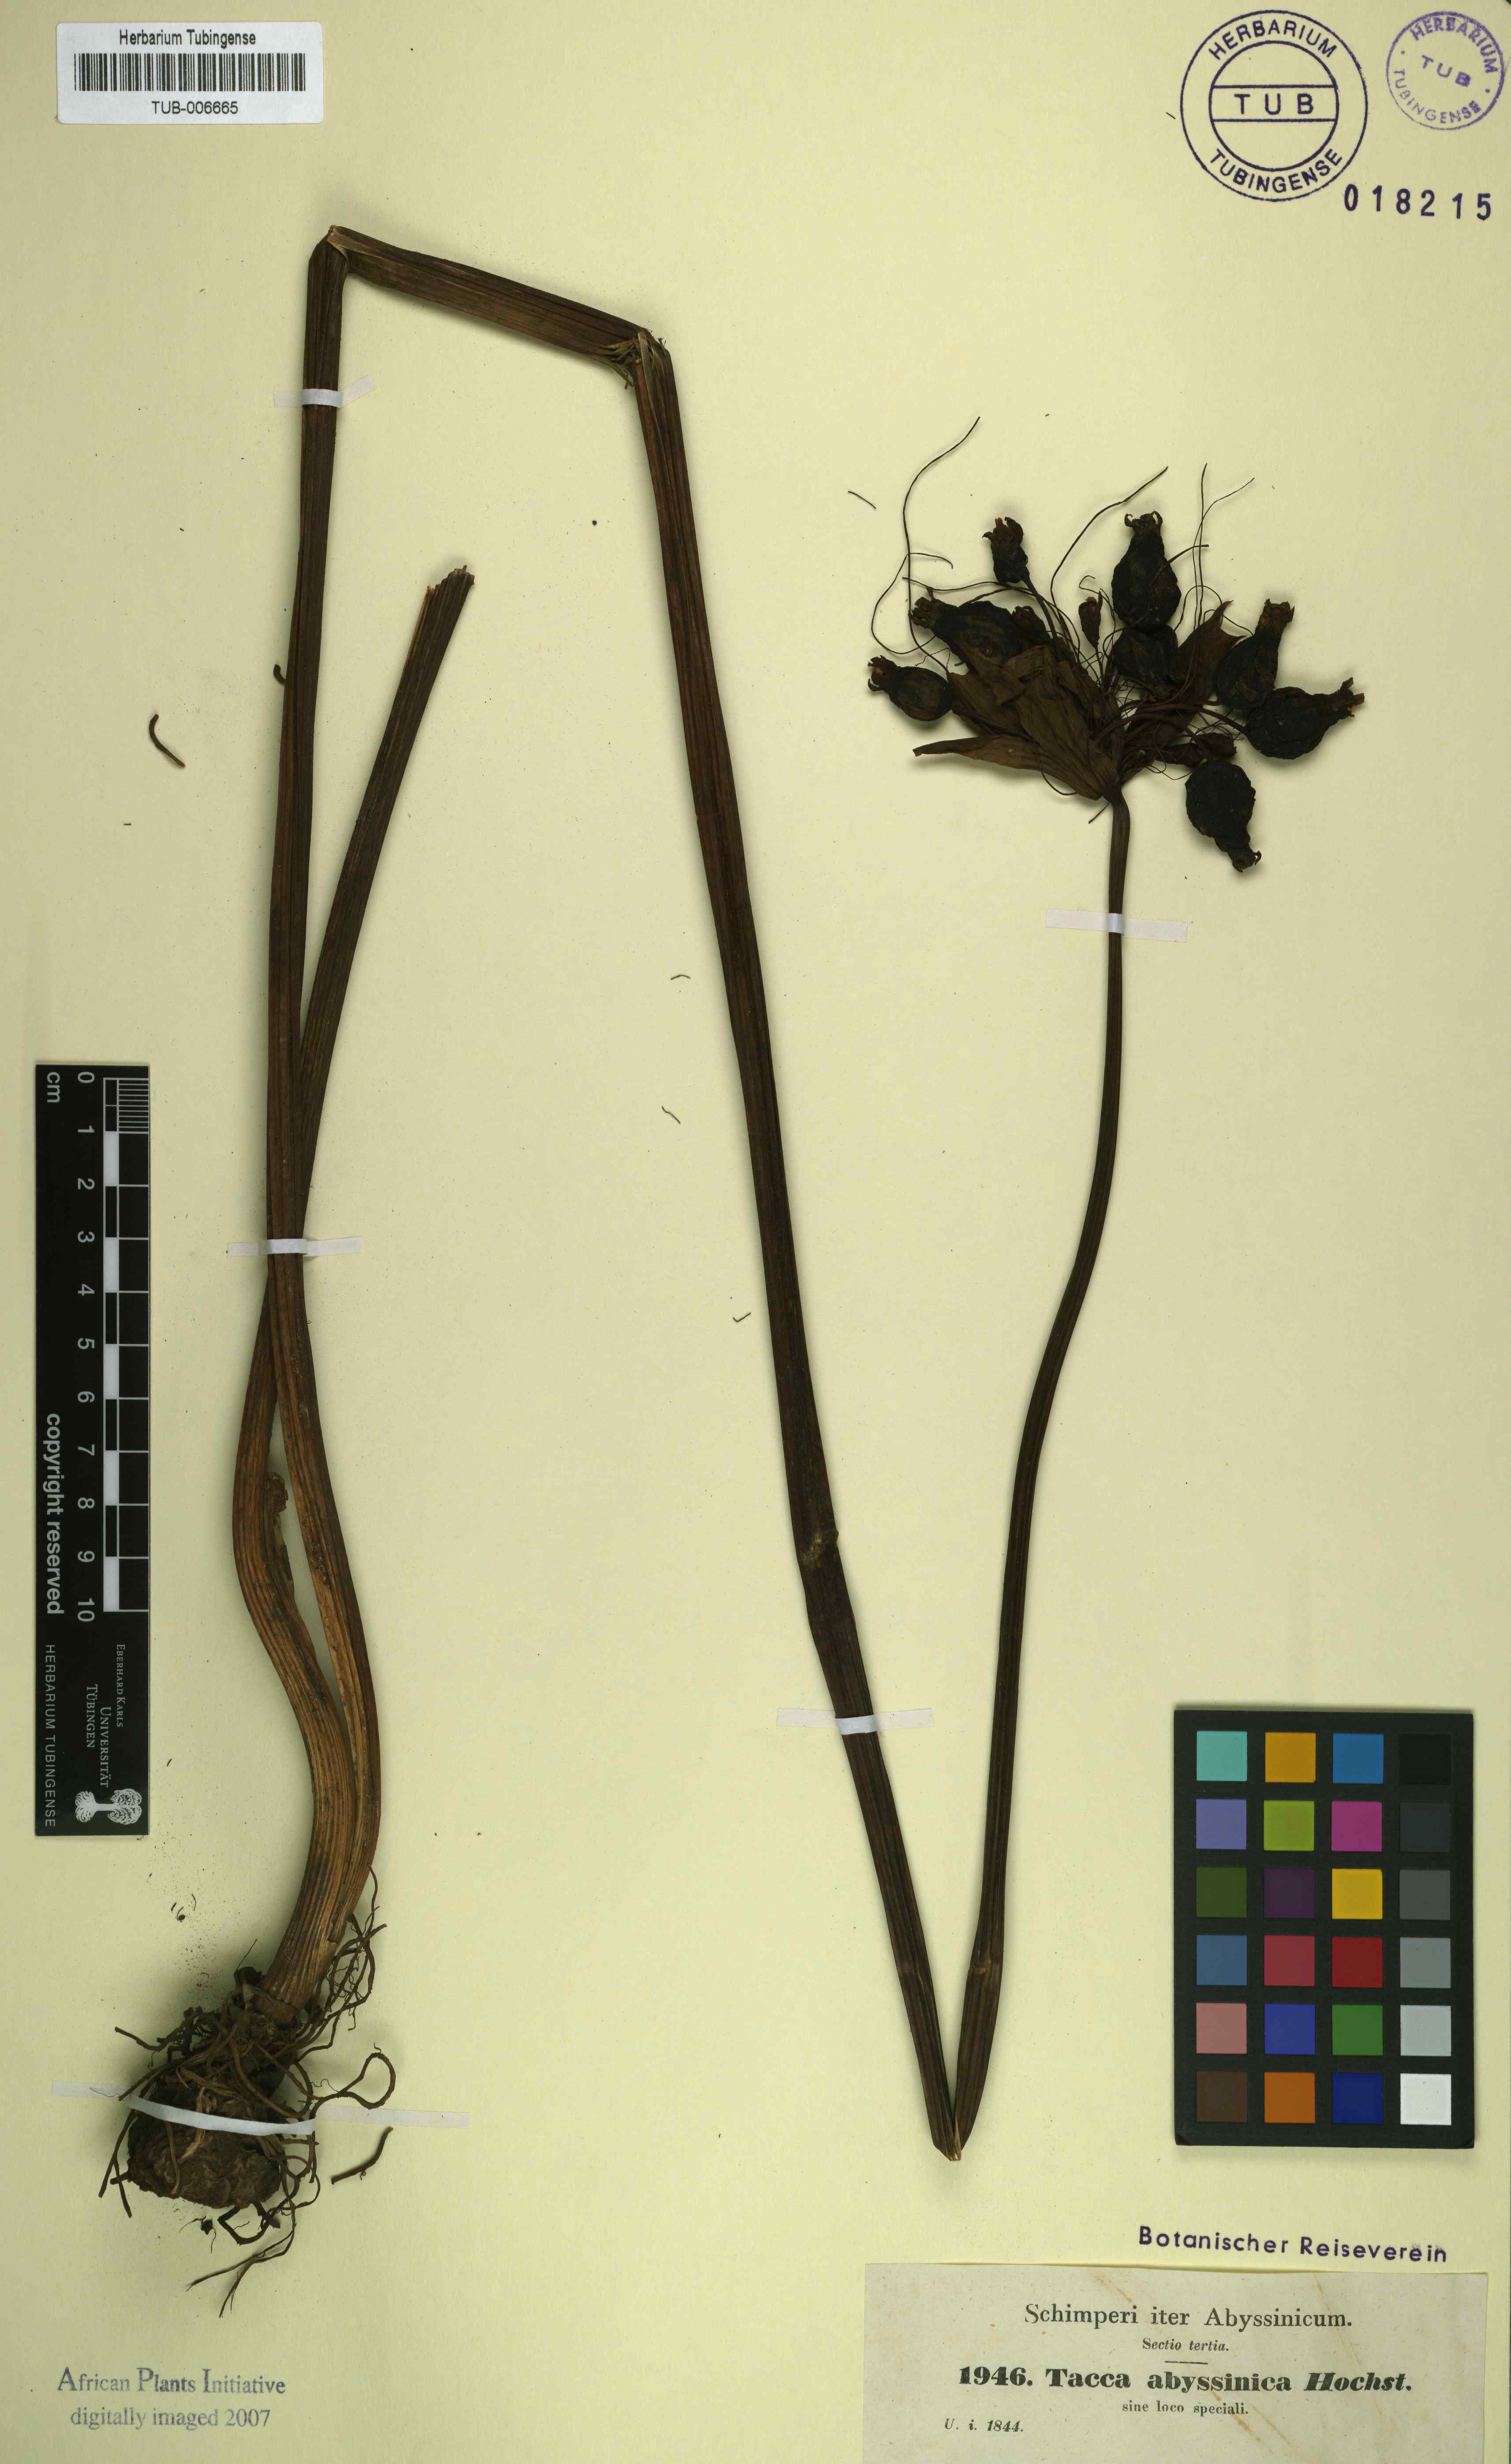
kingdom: Plantae
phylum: Tracheophyta
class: Liliopsida
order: Dioscoreales
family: Dioscoreaceae
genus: Tacca
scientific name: Tacca leontopetaloides
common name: Arrowroot
